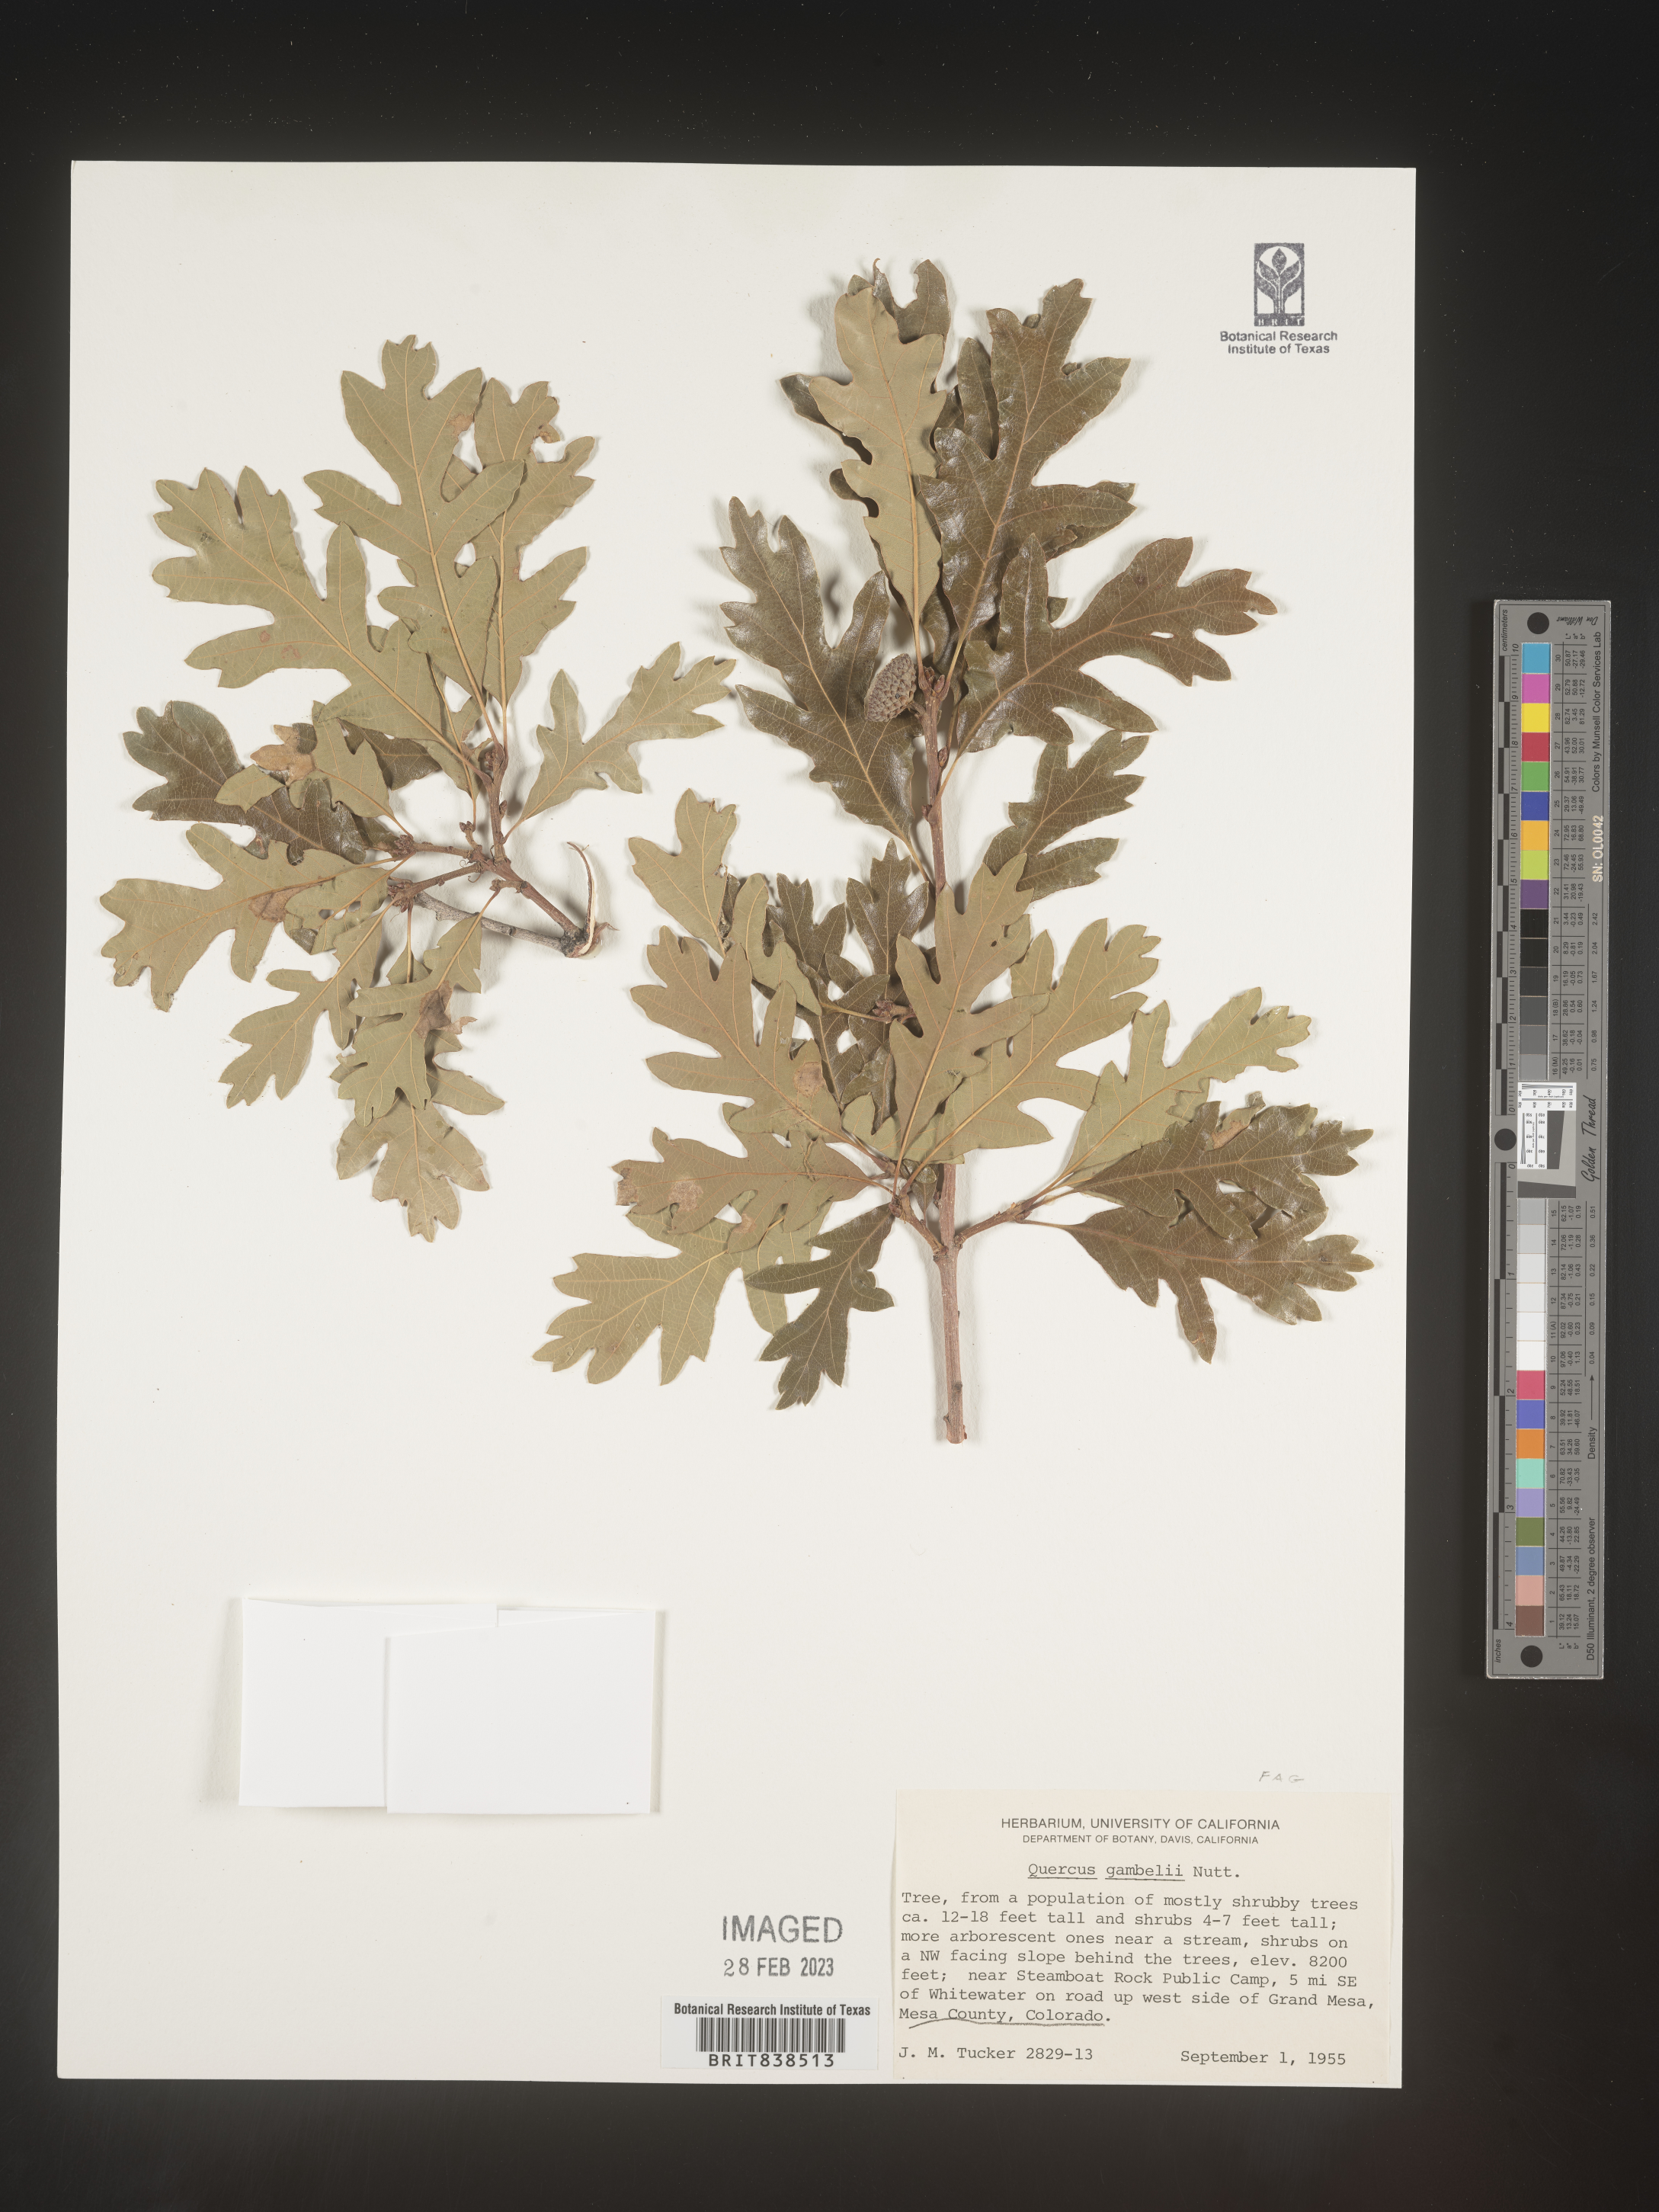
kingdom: Plantae
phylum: Tracheophyta
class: Magnoliopsida
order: Fagales
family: Fagaceae
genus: Quercus
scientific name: Quercus gambelii
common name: Gambel oak
